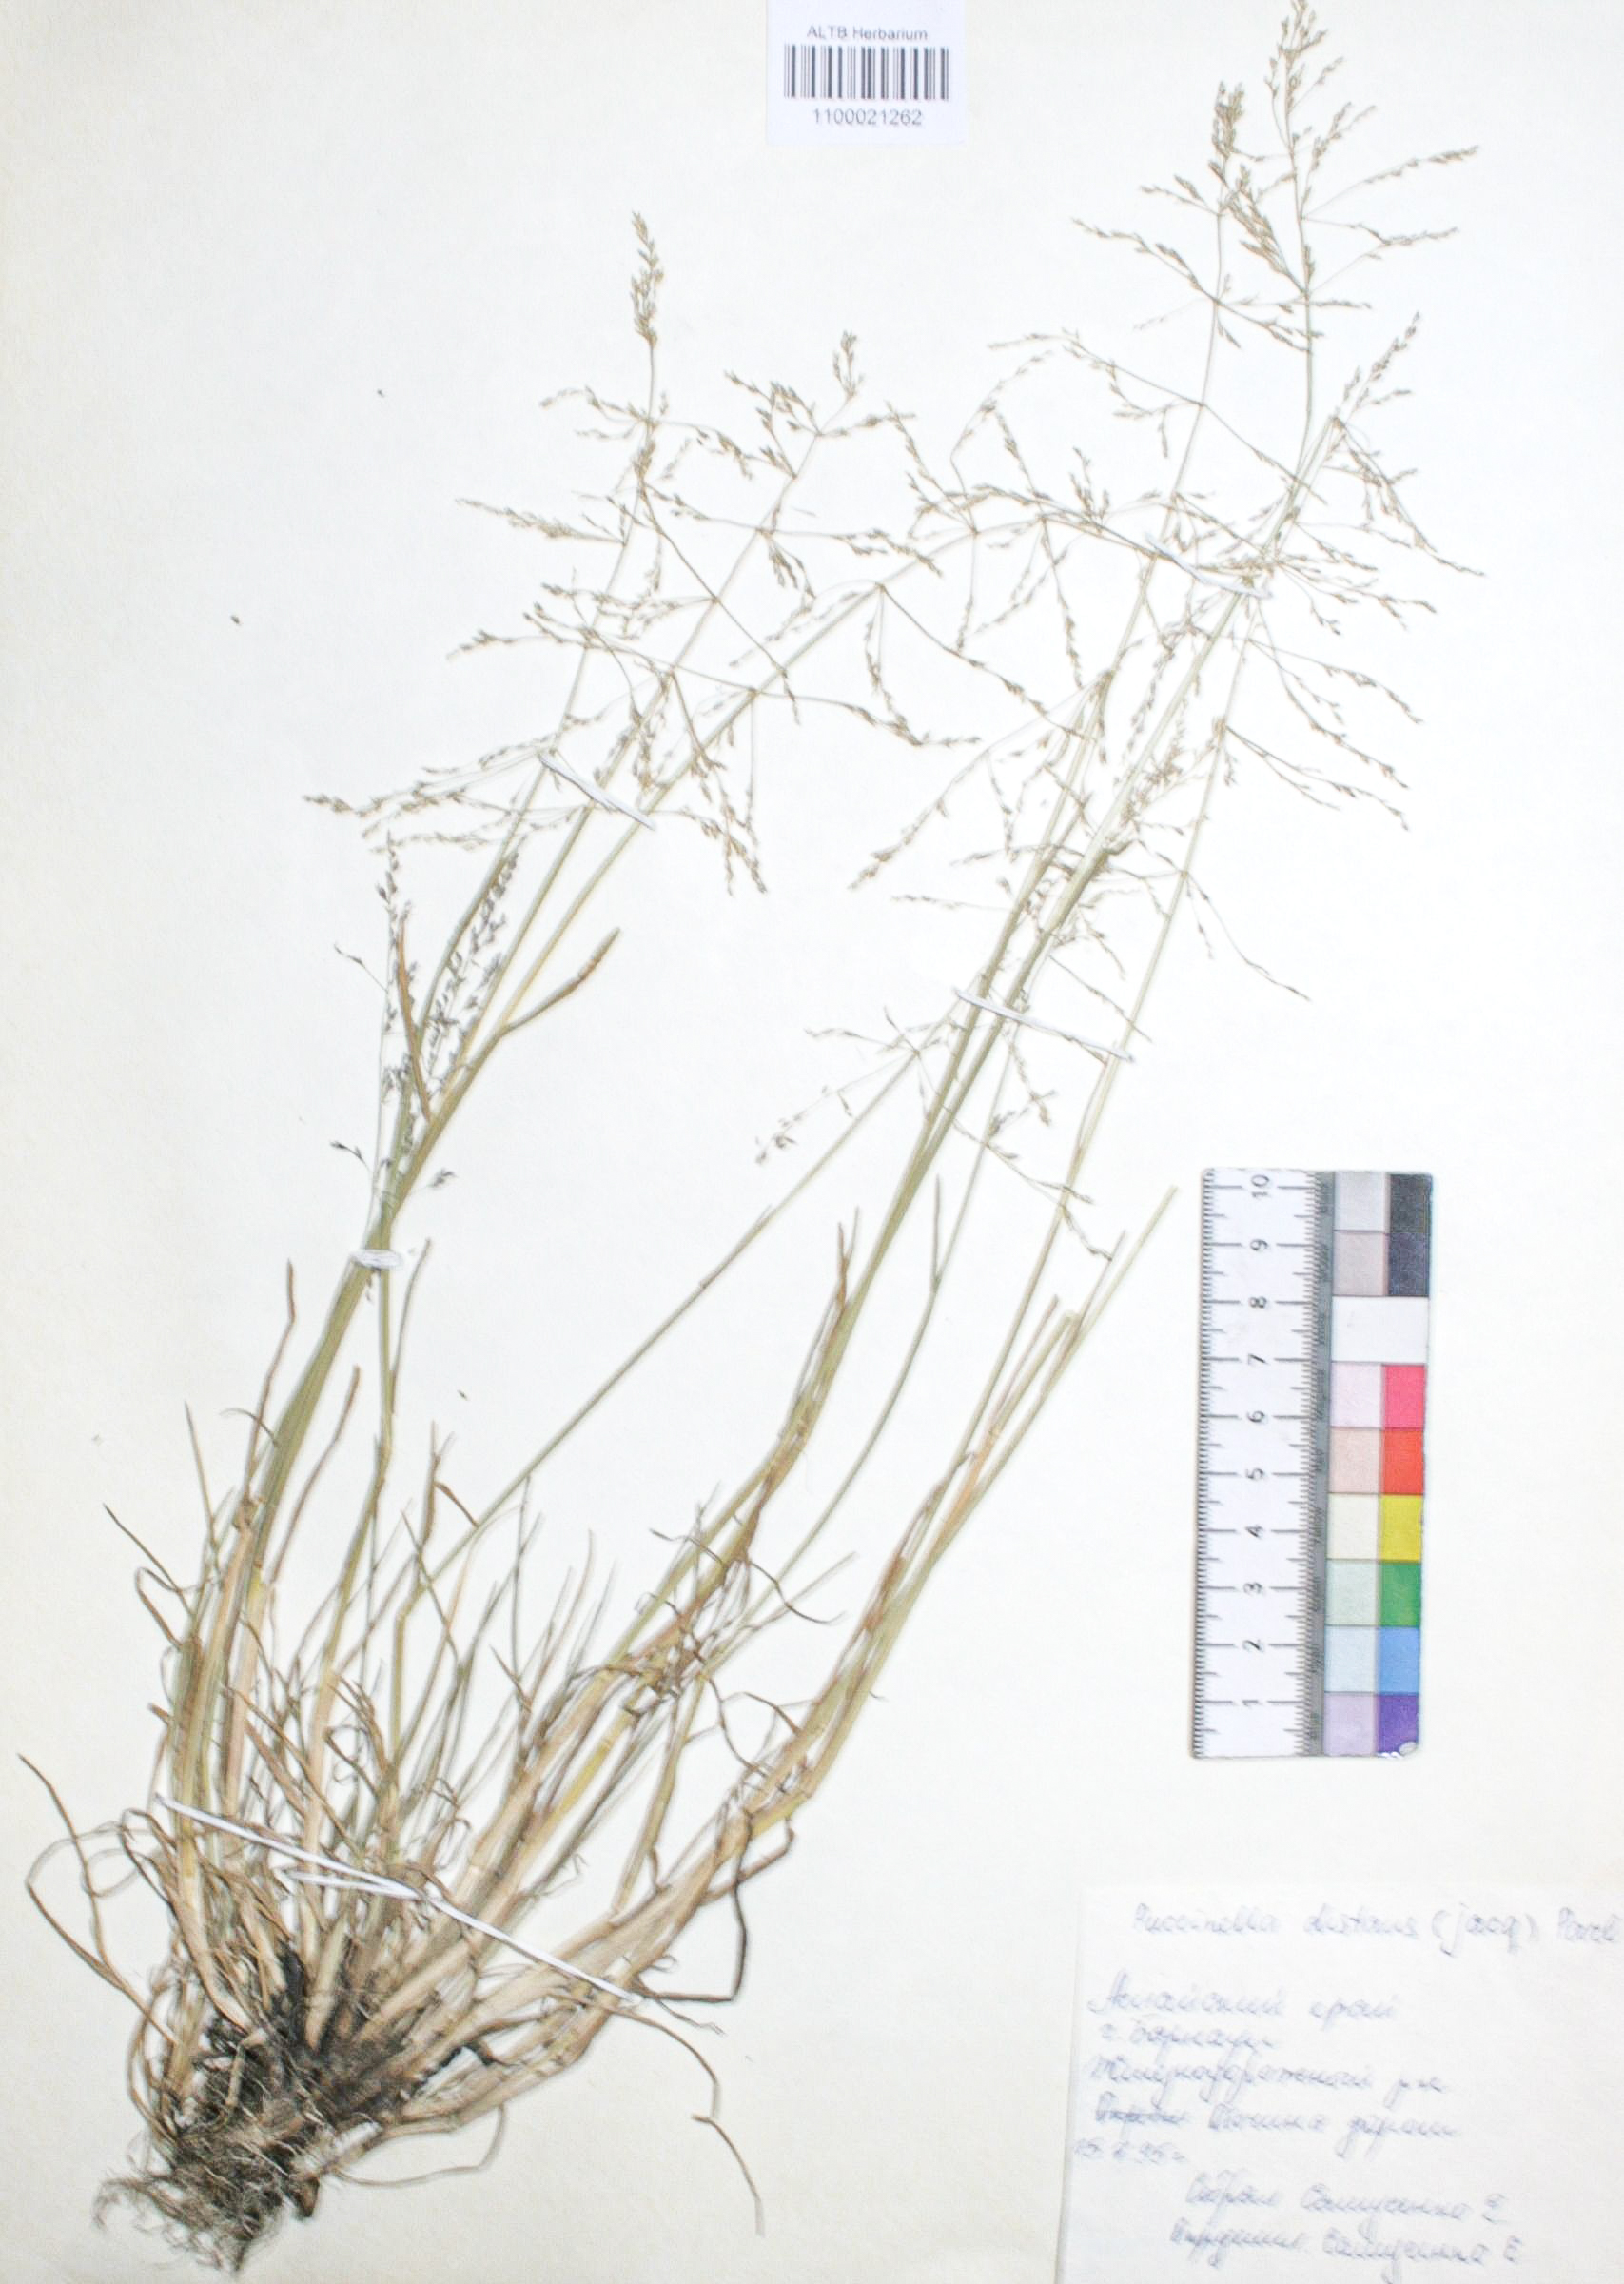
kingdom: Plantae
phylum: Tracheophyta
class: Liliopsida
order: Poales
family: Poaceae
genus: Puccinellia
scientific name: Puccinellia distans
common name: Weeping alkaligrass
